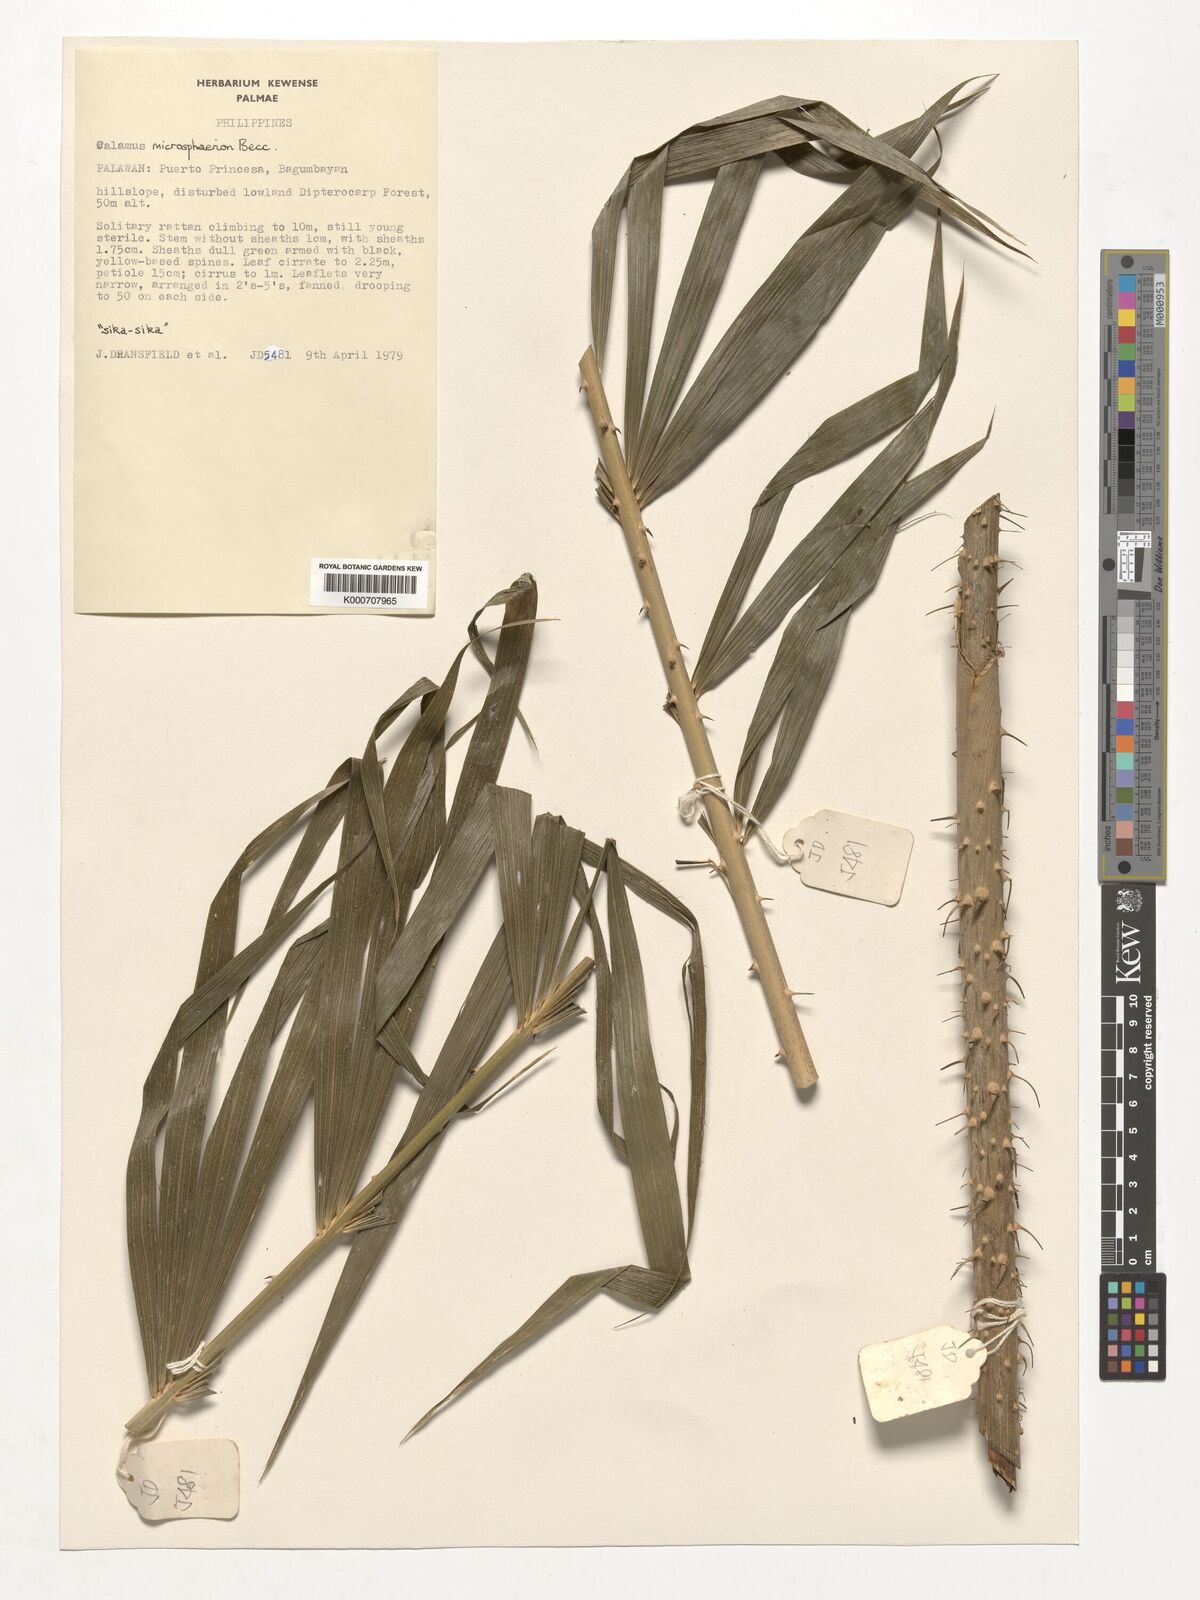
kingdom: Plantae
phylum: Tracheophyta
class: Liliopsida
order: Arecales
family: Arecaceae
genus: Calamus
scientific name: Calamus microsphaerion
